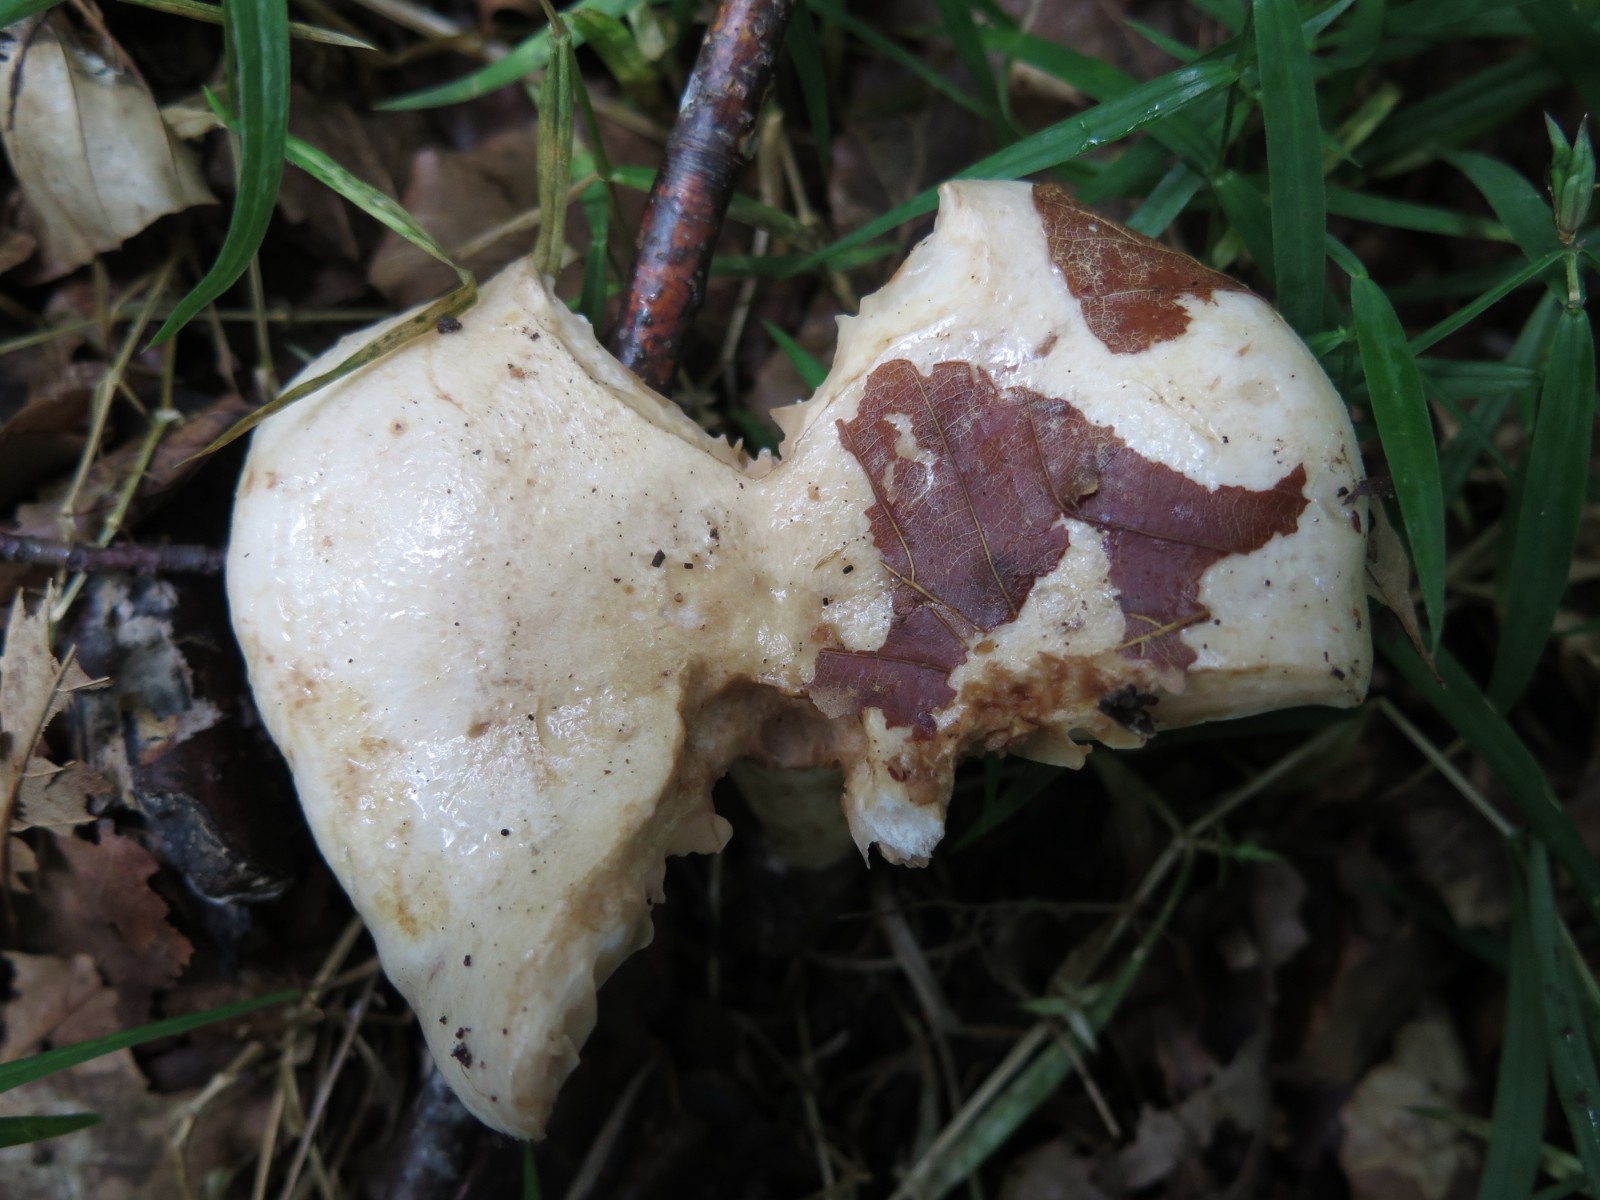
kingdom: Fungi
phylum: Basidiomycota
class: Agaricomycetes
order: Russulales
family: Russulaceae
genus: Lactarius
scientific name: Lactarius pallidus
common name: bleg mælkehat
